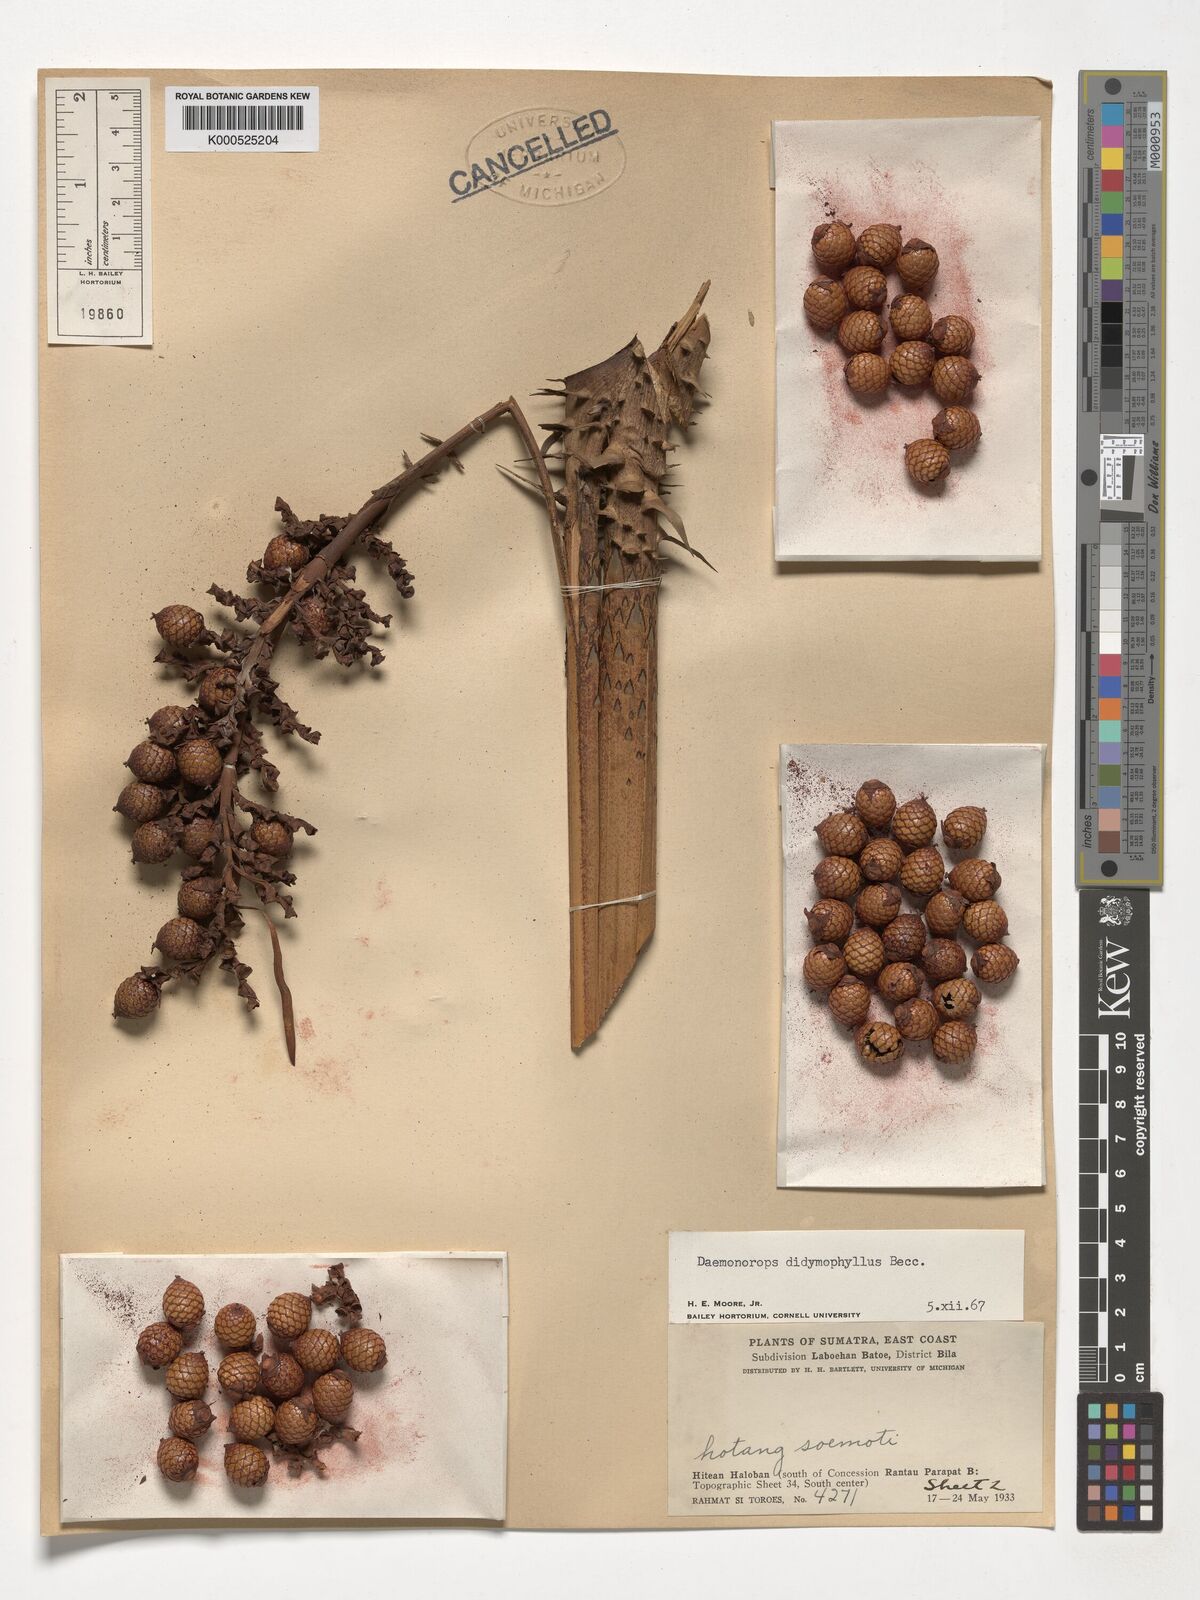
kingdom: Plantae
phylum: Tracheophyta
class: Liliopsida
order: Arecales
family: Arecaceae
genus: Calamus
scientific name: Calamus gracilipes
